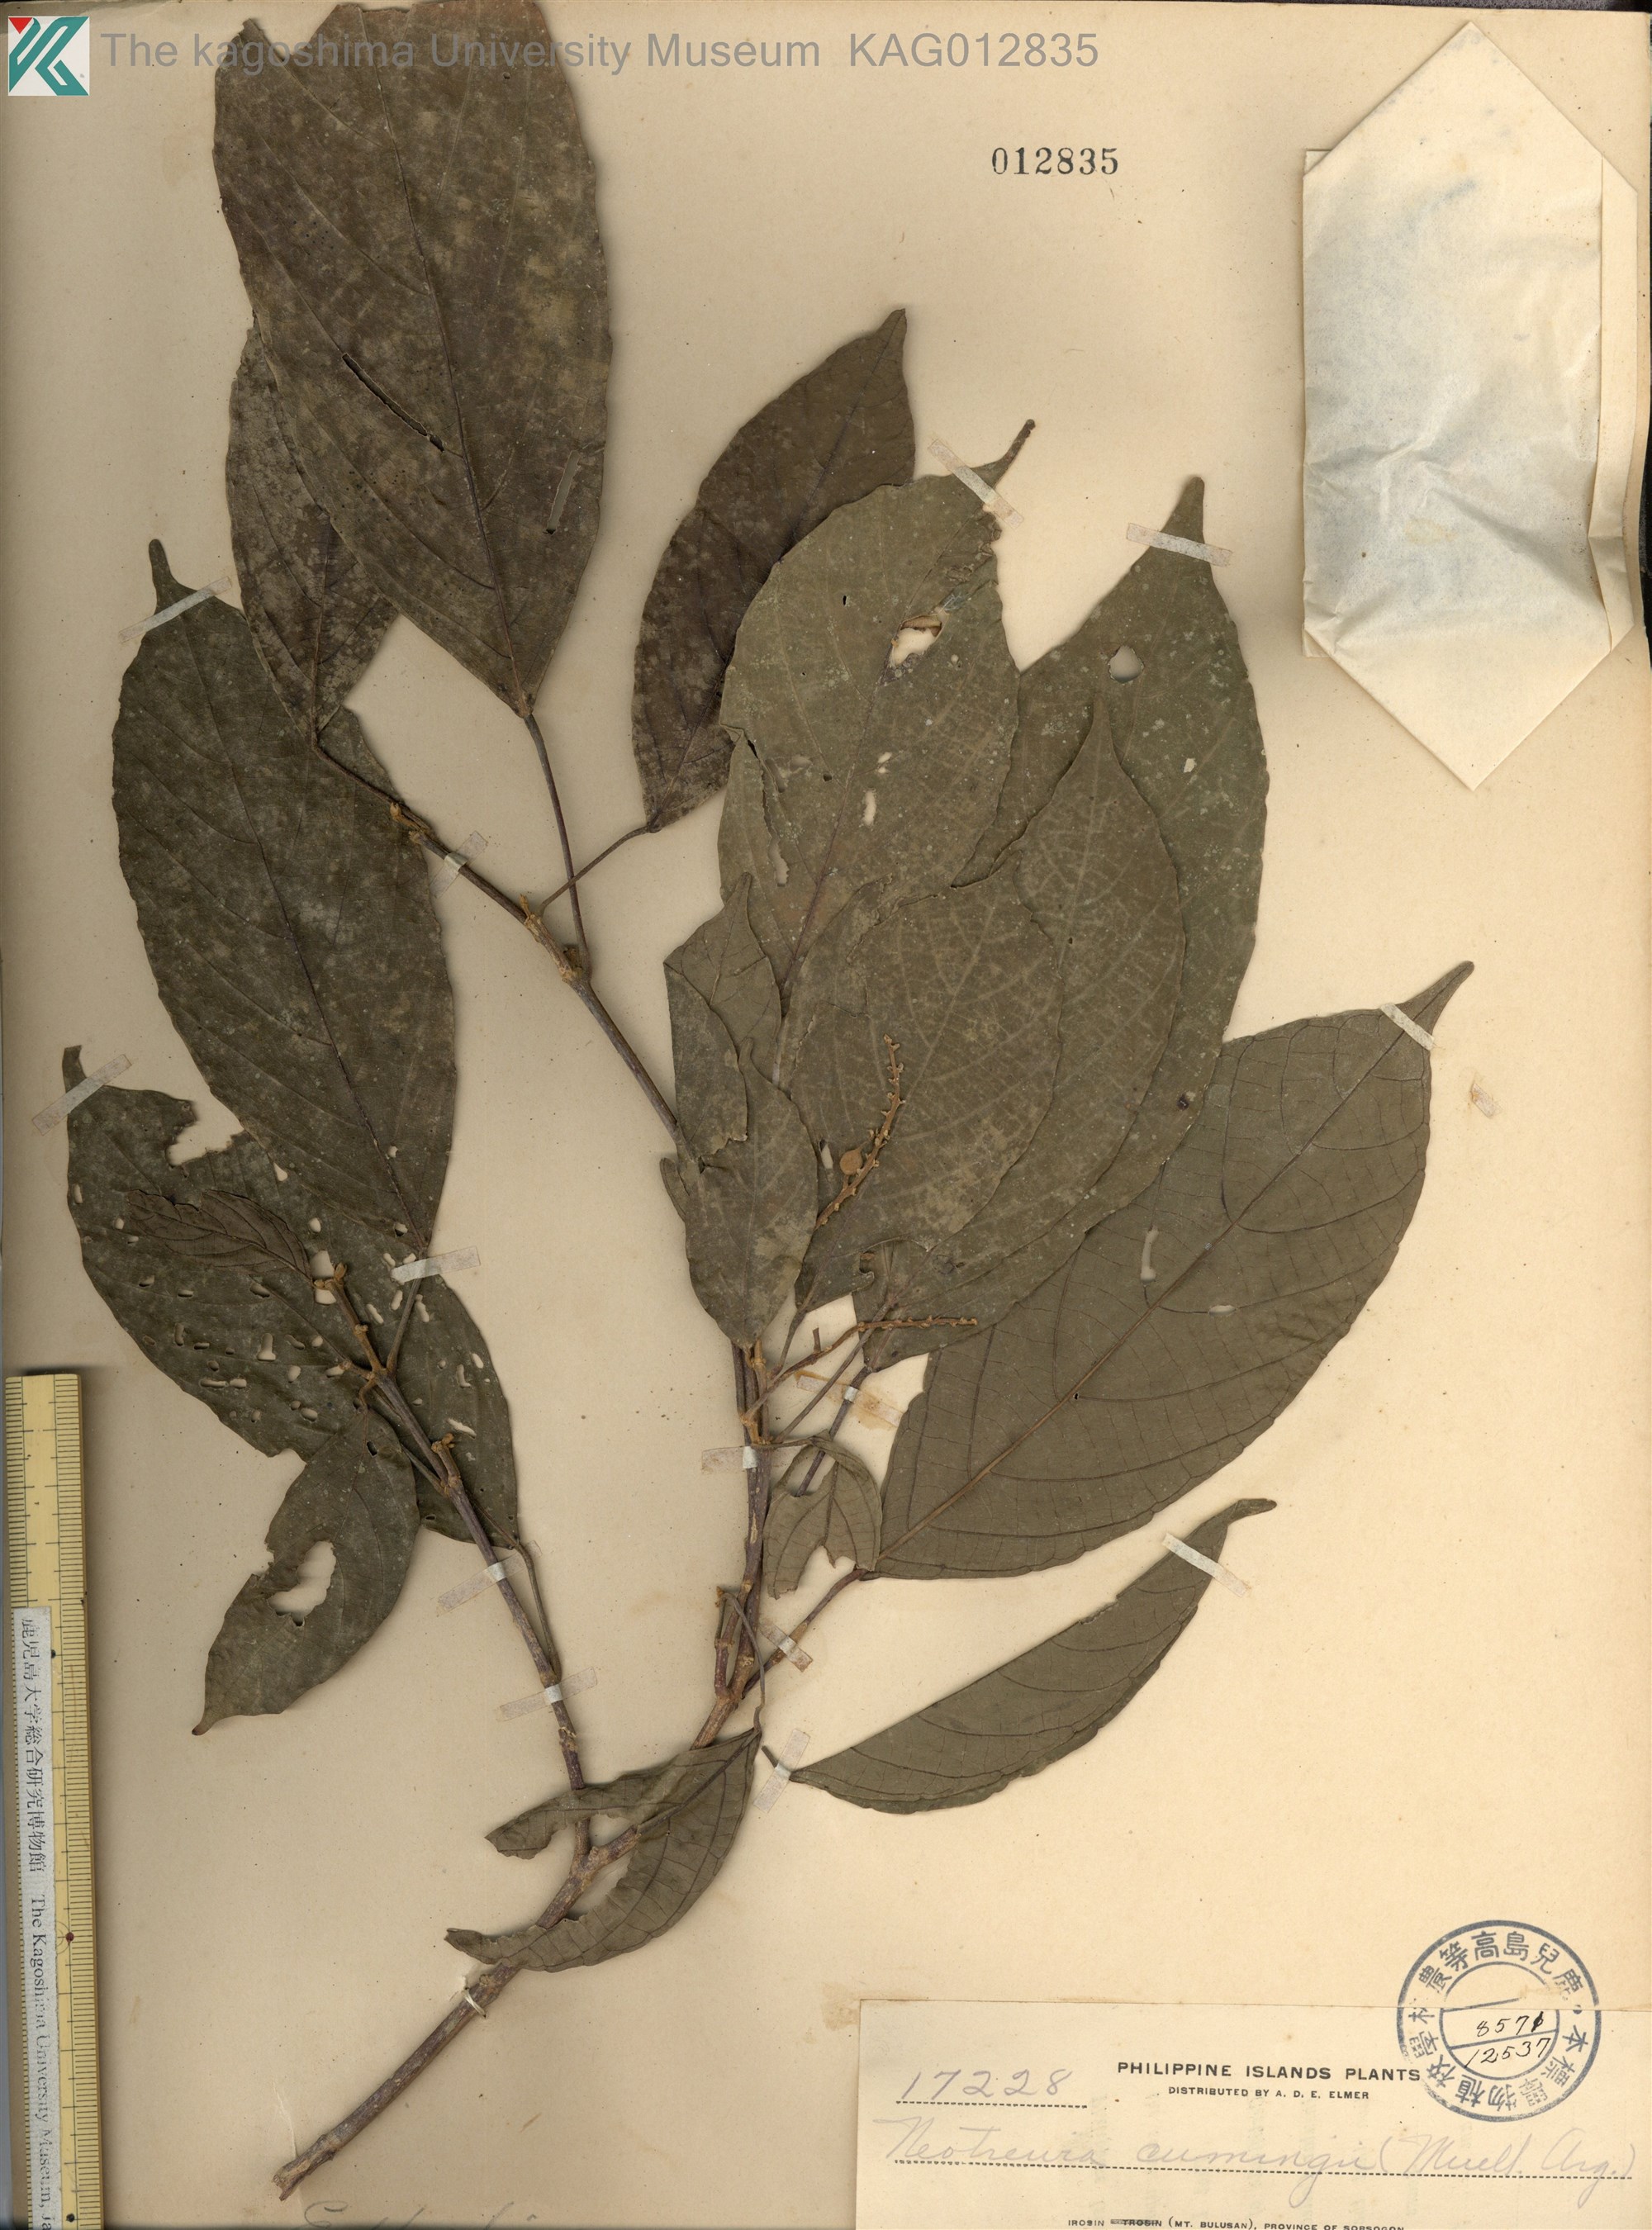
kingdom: Plantae
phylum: Tracheophyta
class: Magnoliopsida
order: Malpighiales
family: Euphorbiaceae
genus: Mallotus
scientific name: Mallotus cumingii
